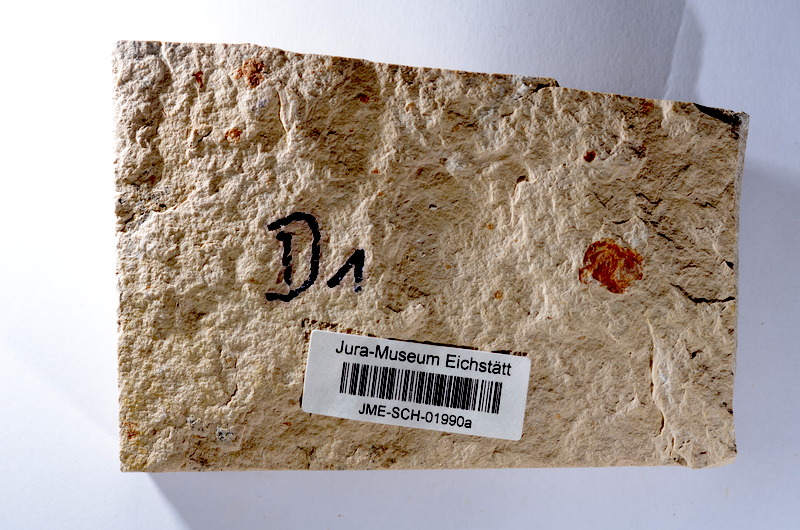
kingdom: Animalia
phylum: Chordata
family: Ascalaboidae
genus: Tharsis
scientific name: Tharsis dubius
